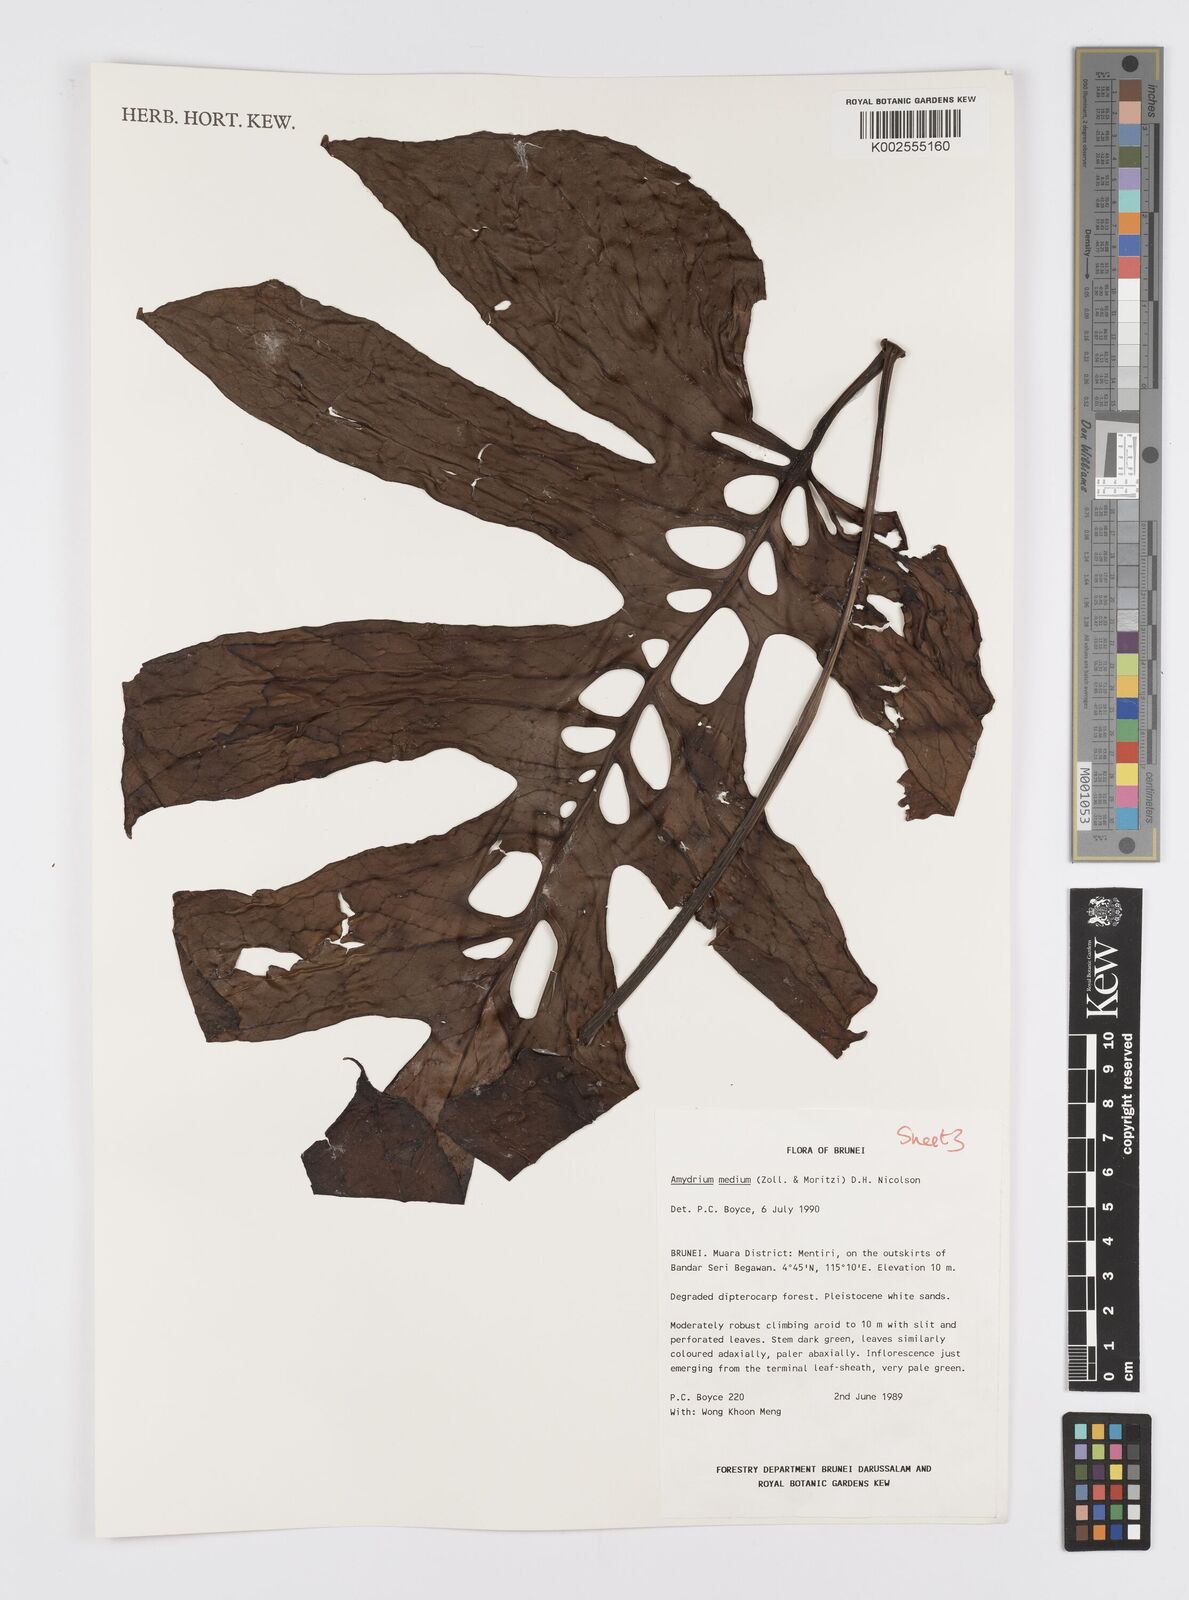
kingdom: Plantae
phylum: Tracheophyta
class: Liliopsida
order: Alismatales
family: Araceae
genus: Amydrium
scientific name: Amydrium medium
